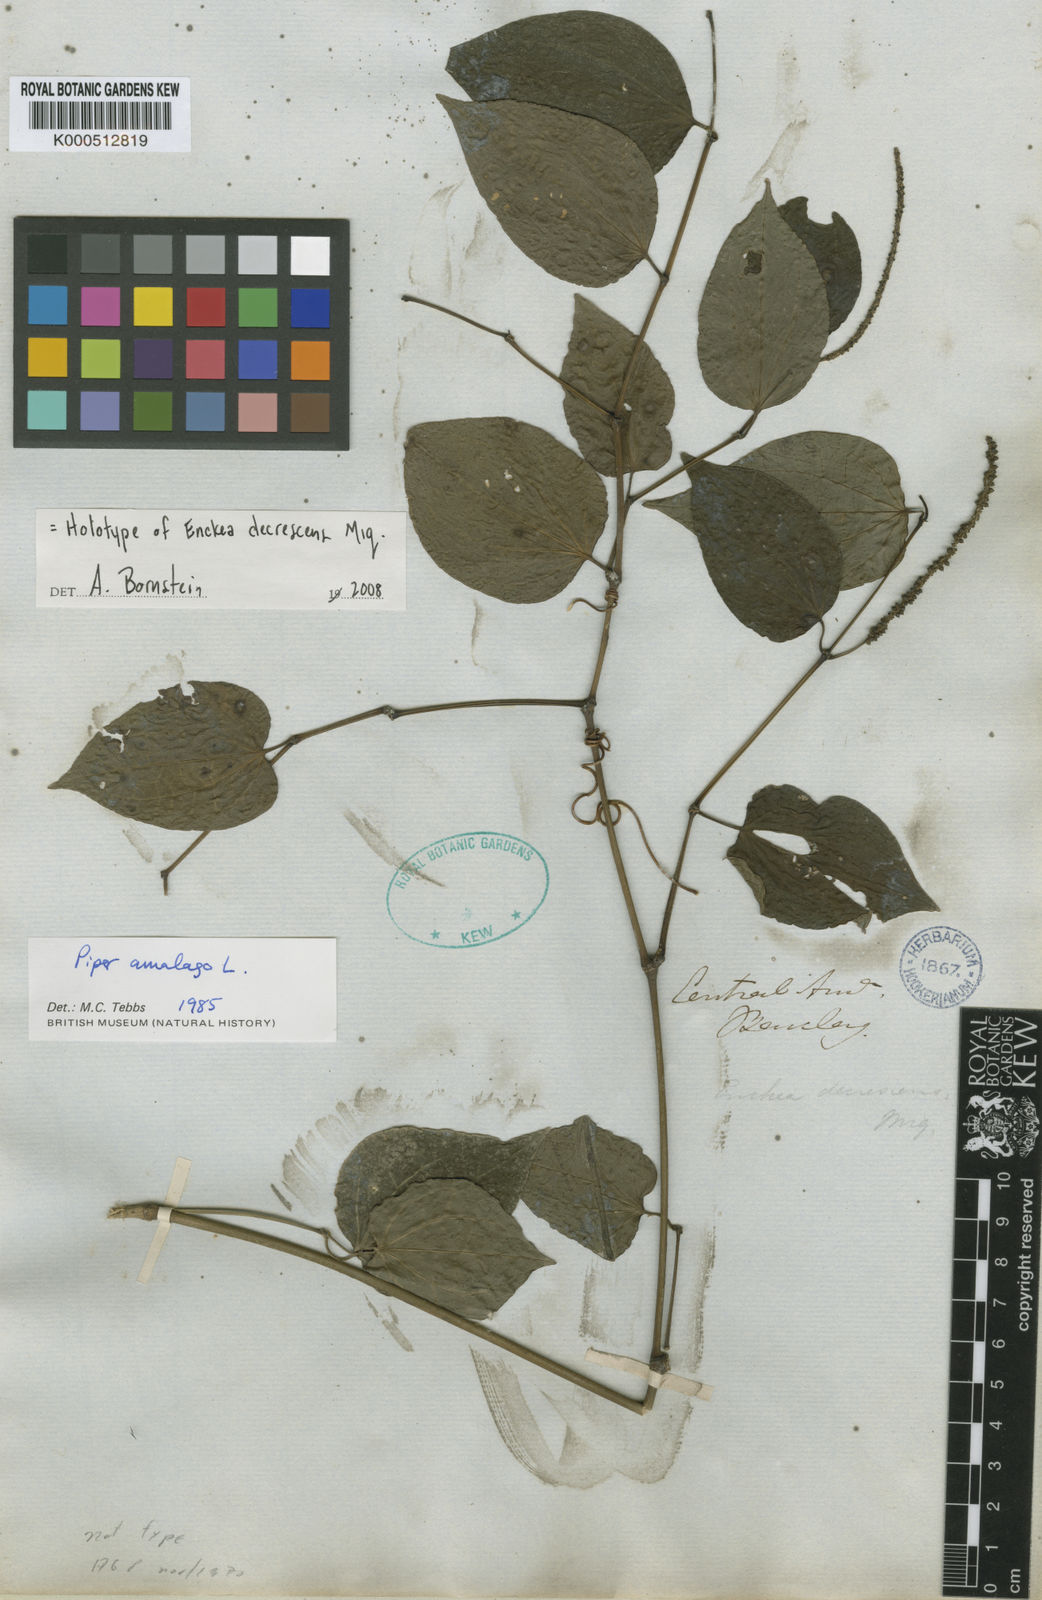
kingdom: Plantae
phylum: Tracheophyta
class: Magnoliopsida
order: Piperales
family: Piperaceae
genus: Piper
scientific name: Piper amalago
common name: Pepper-elder
